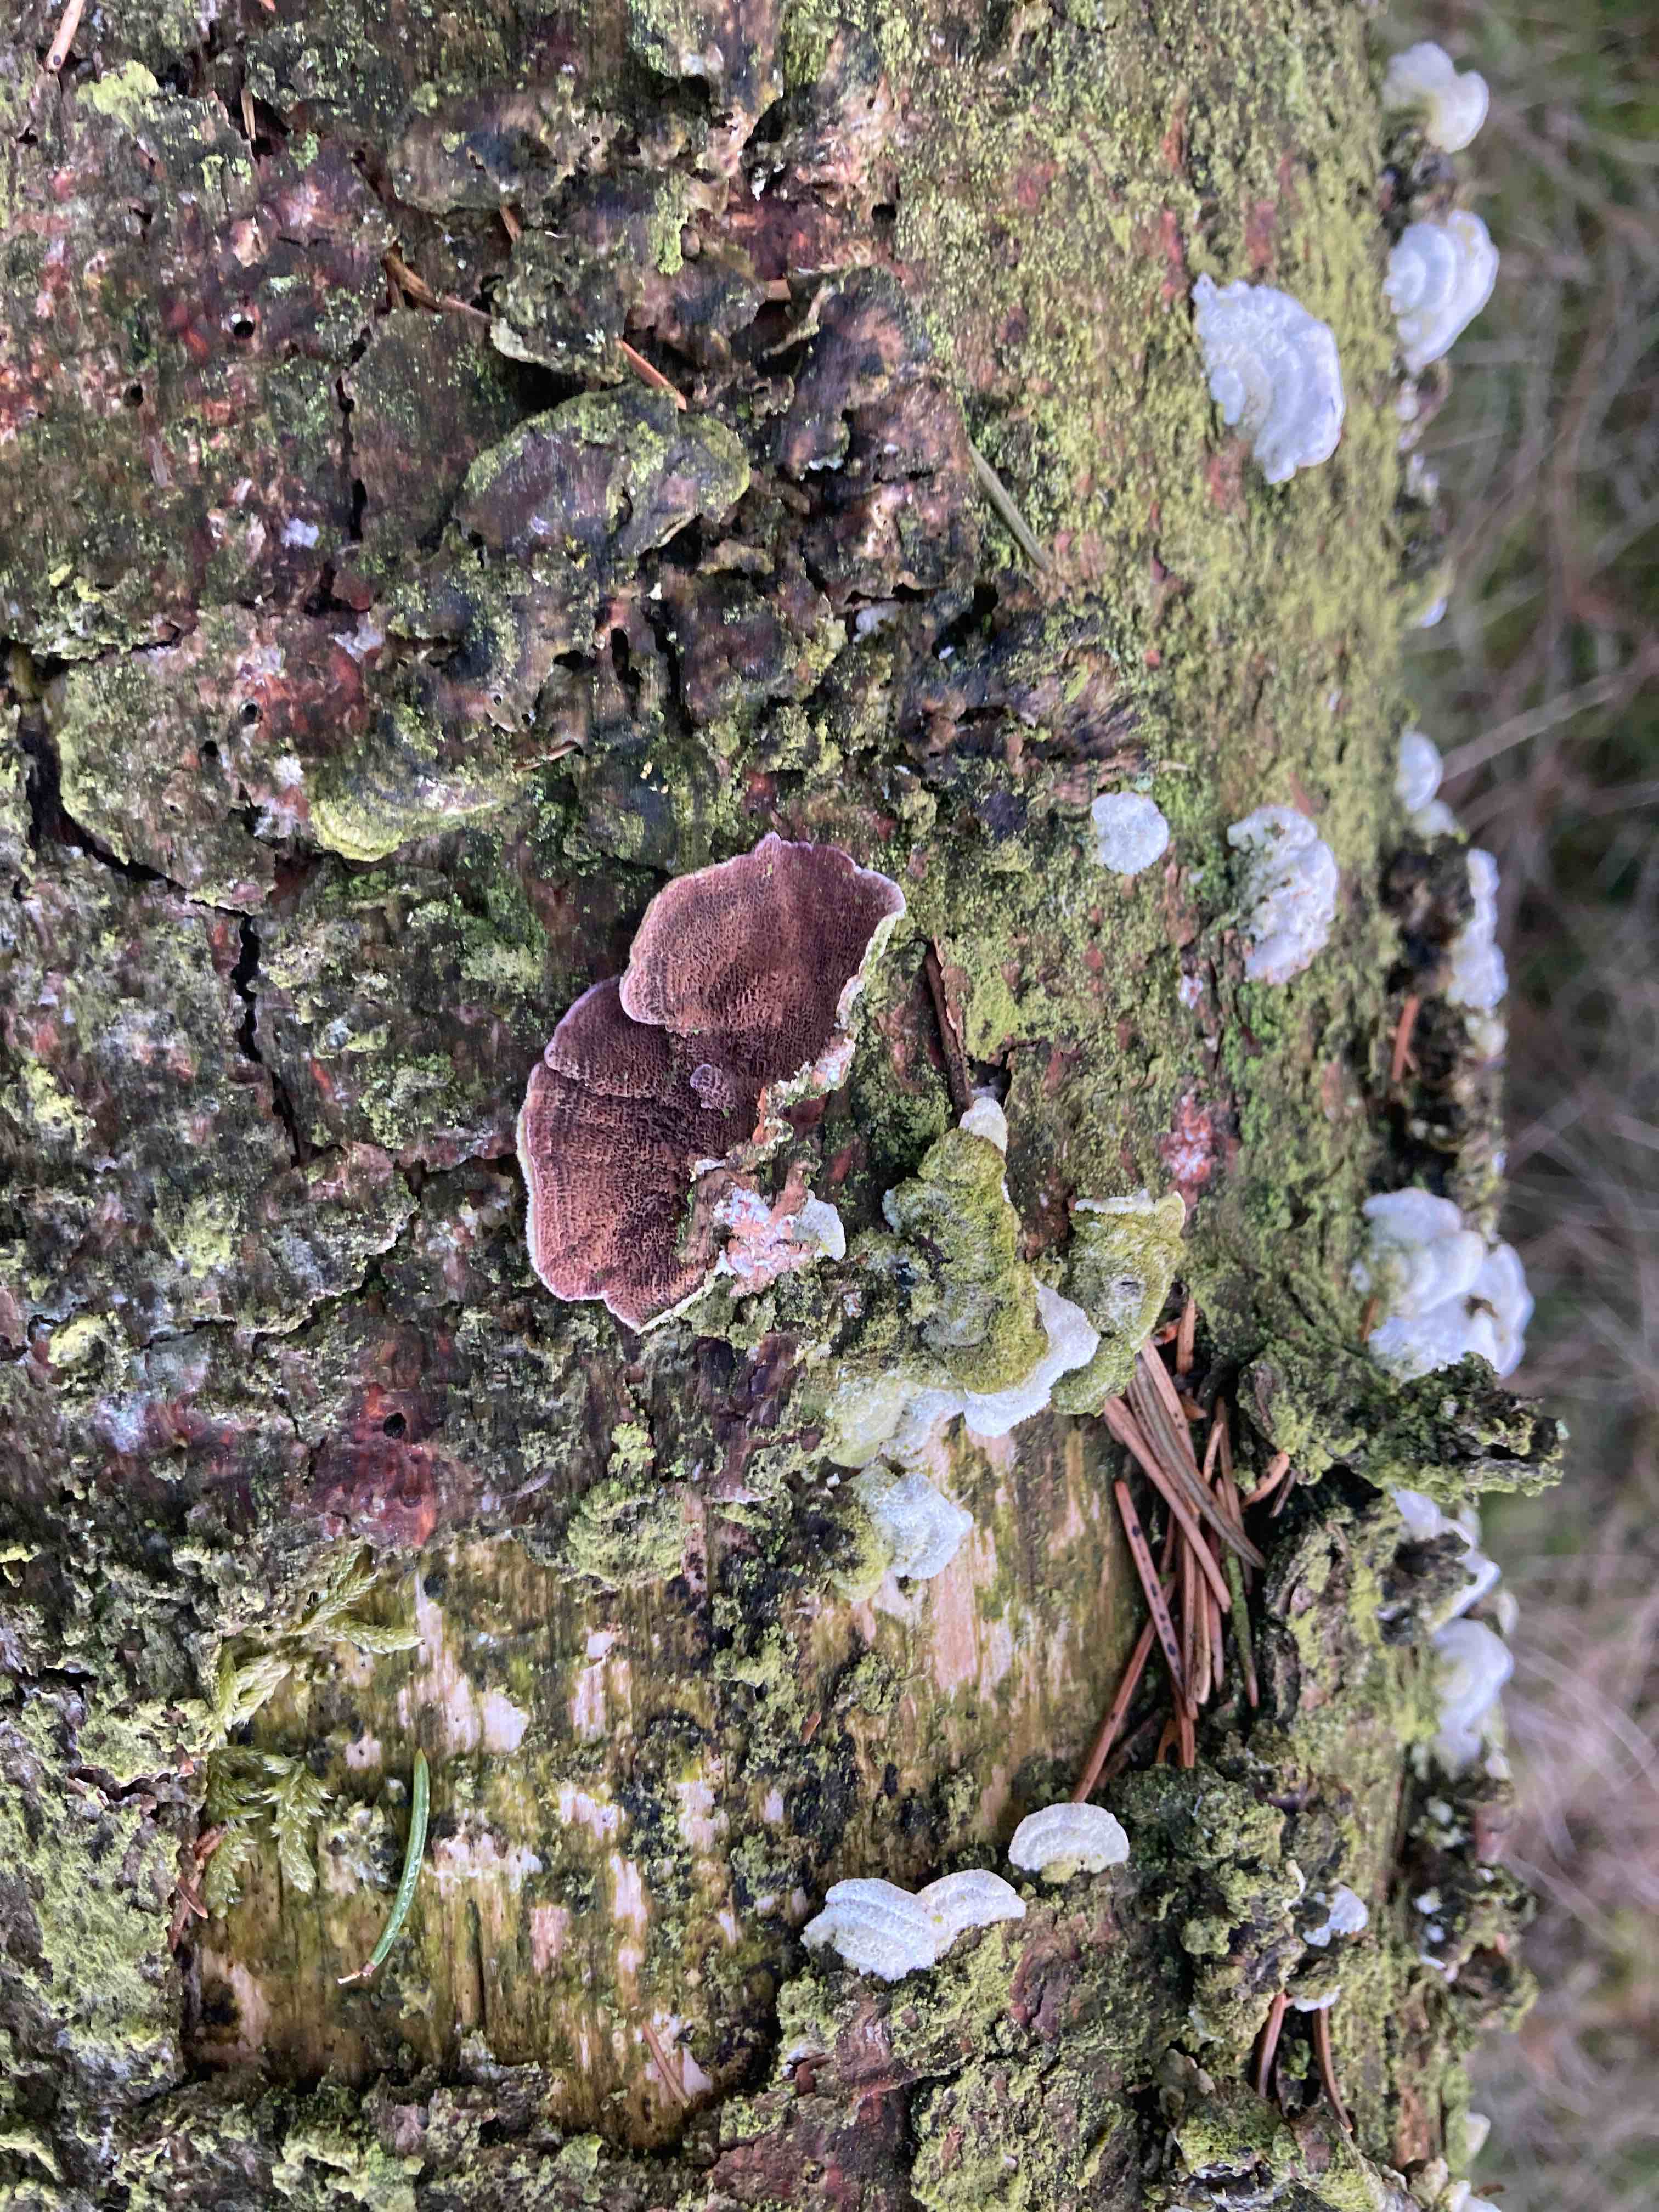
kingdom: Fungi
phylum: Basidiomycota
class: Agaricomycetes
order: Hymenochaetales
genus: Trichaptum
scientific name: Trichaptum abietinum
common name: almindelig violporesvamp
